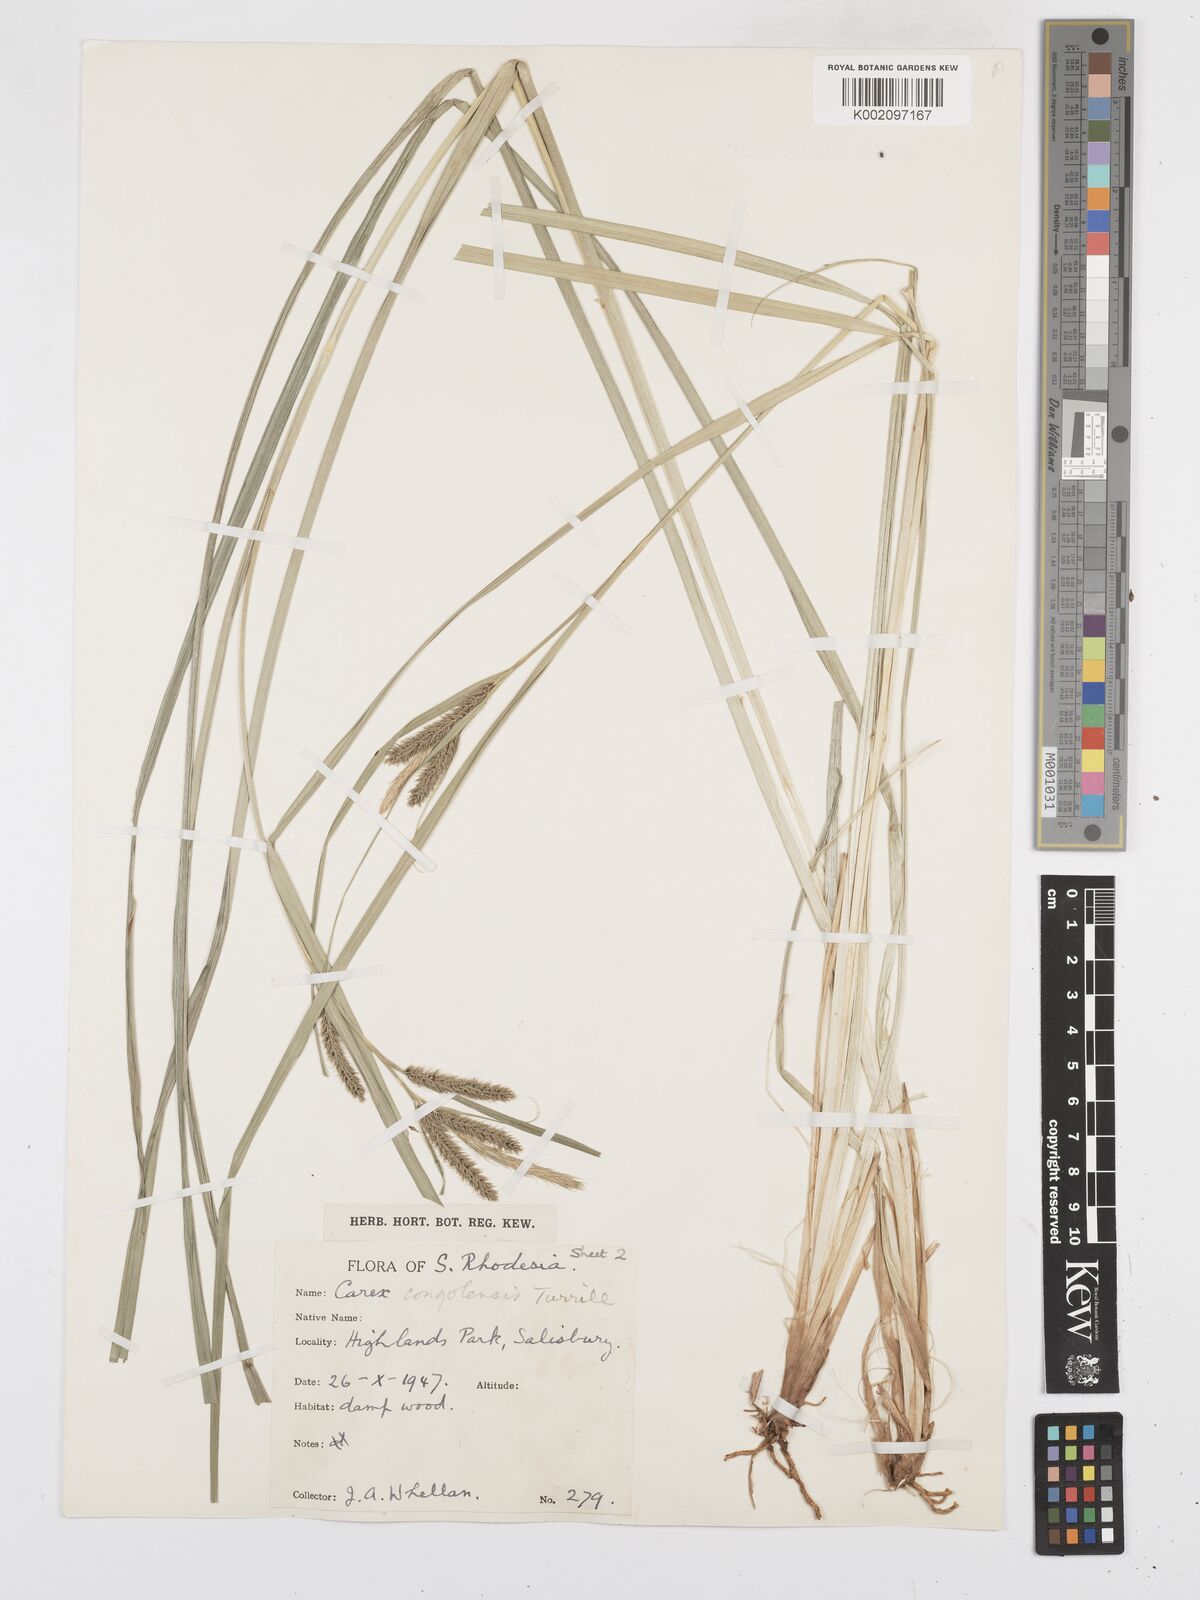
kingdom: Plantae
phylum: Tracheophyta
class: Liliopsida
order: Poales
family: Cyperaceae
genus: Carex
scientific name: Carex congolensis
